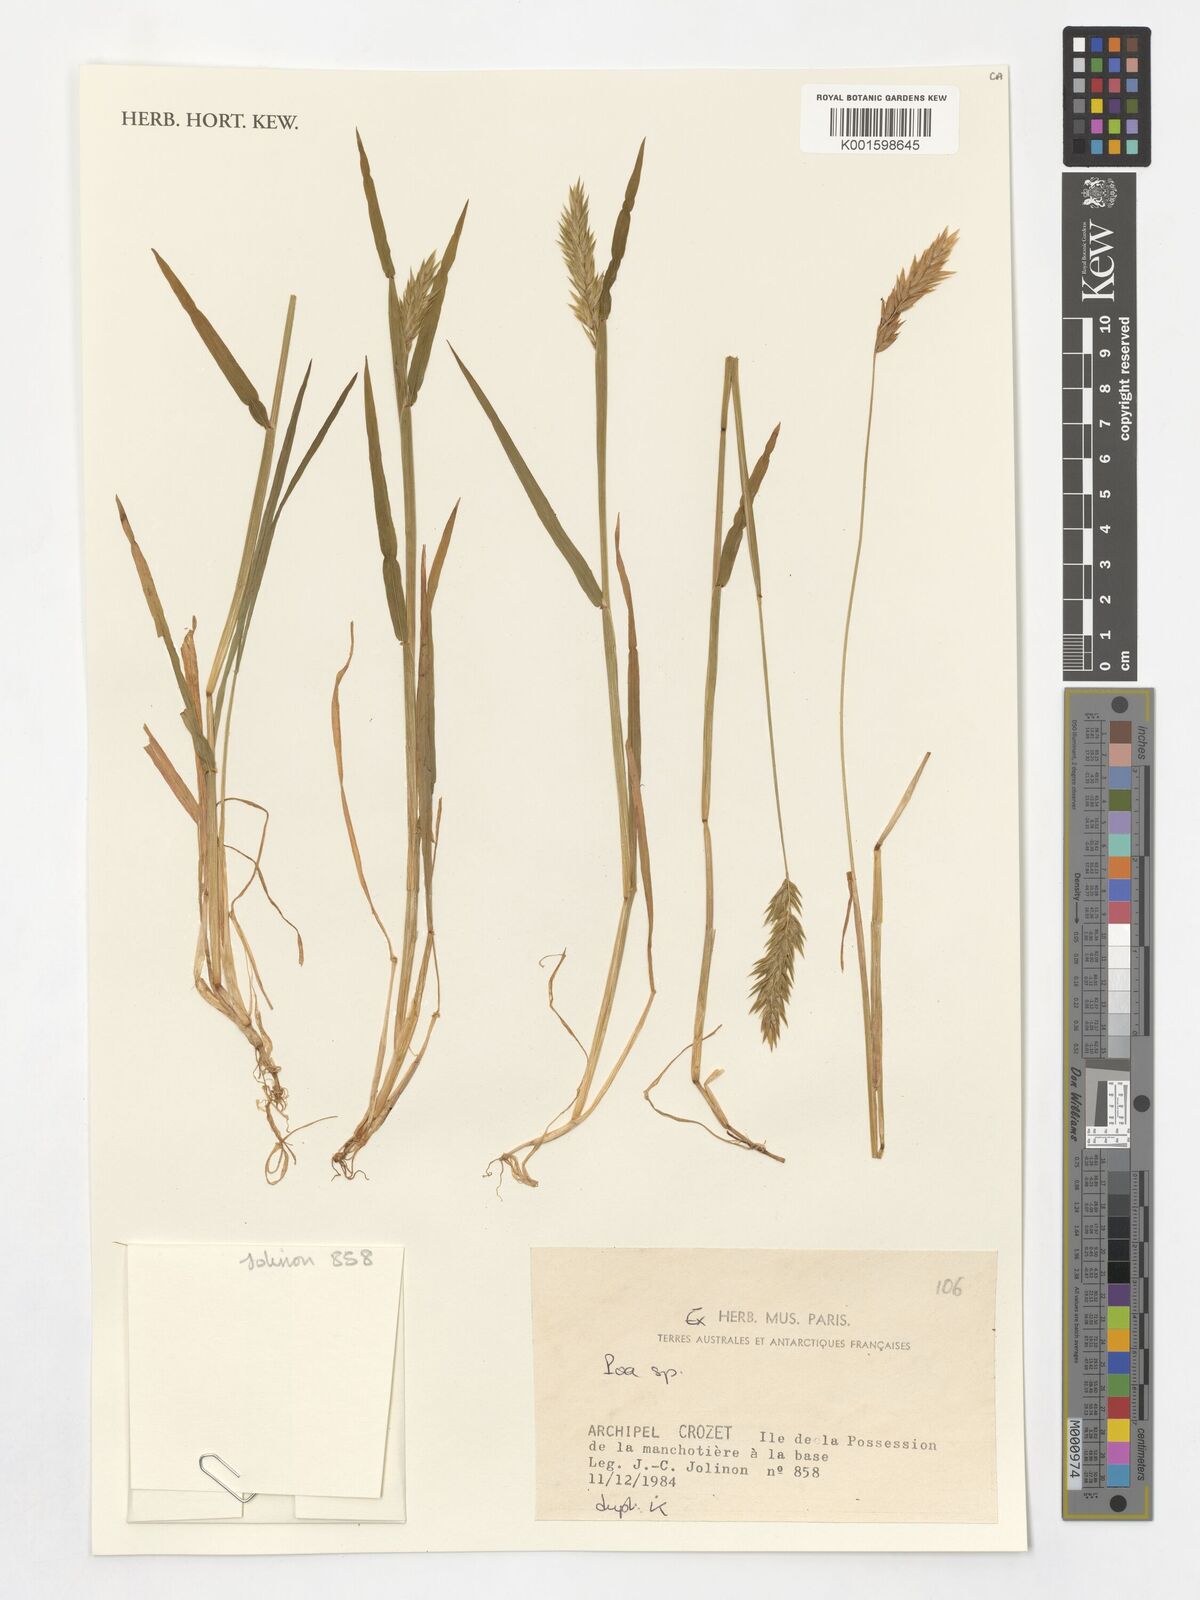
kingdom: Plantae
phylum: Tracheophyta
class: Liliopsida
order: Poales
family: Poaceae
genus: Poa
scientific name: Poa
